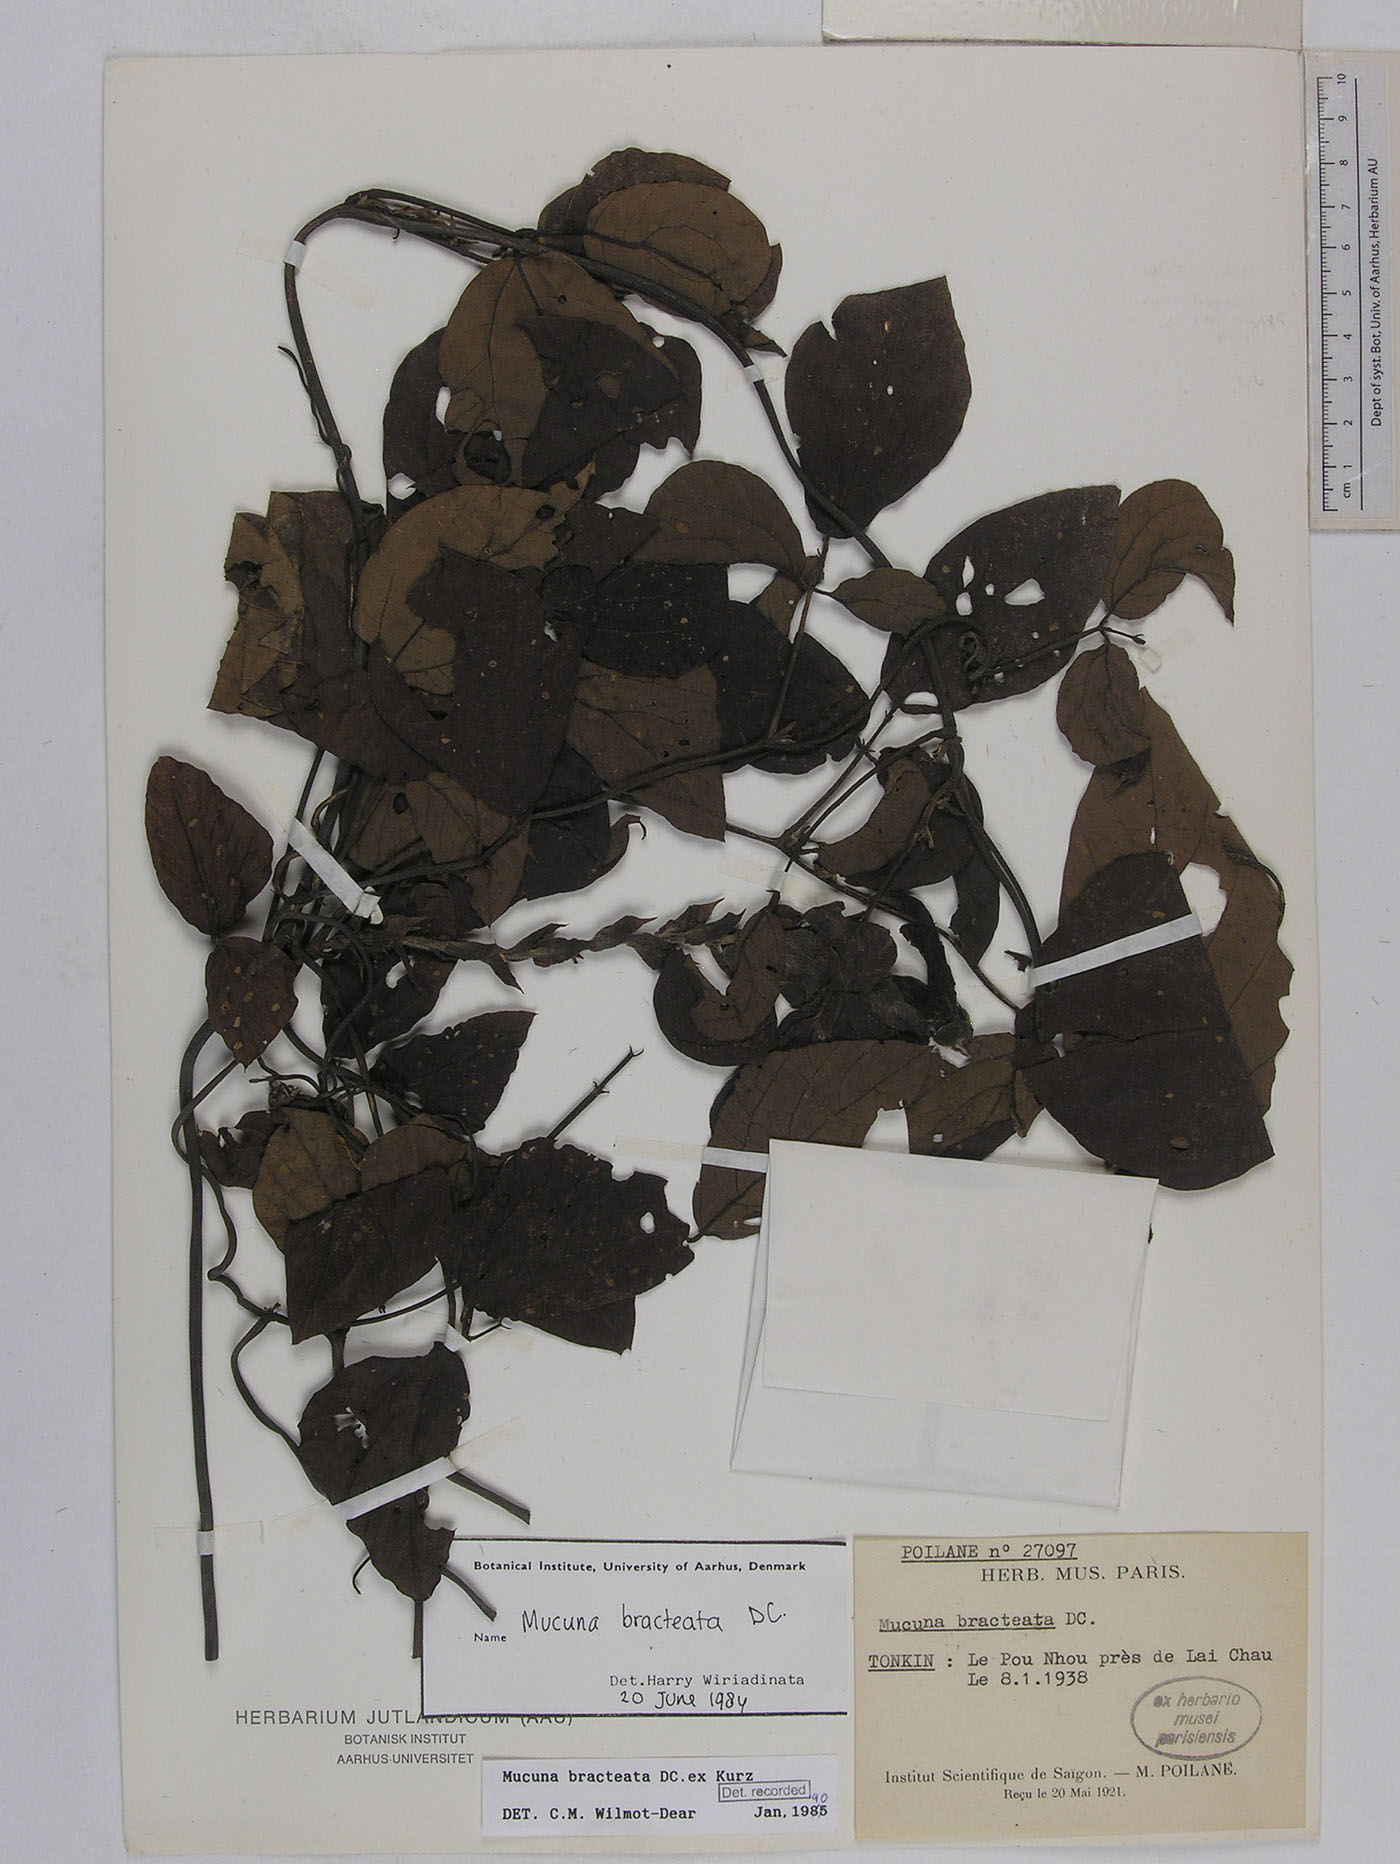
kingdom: Plantae
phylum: Tracheophyta
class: Magnoliopsida
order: Fabales
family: Fabaceae
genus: Mucuna
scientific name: Mucuna bracteata
